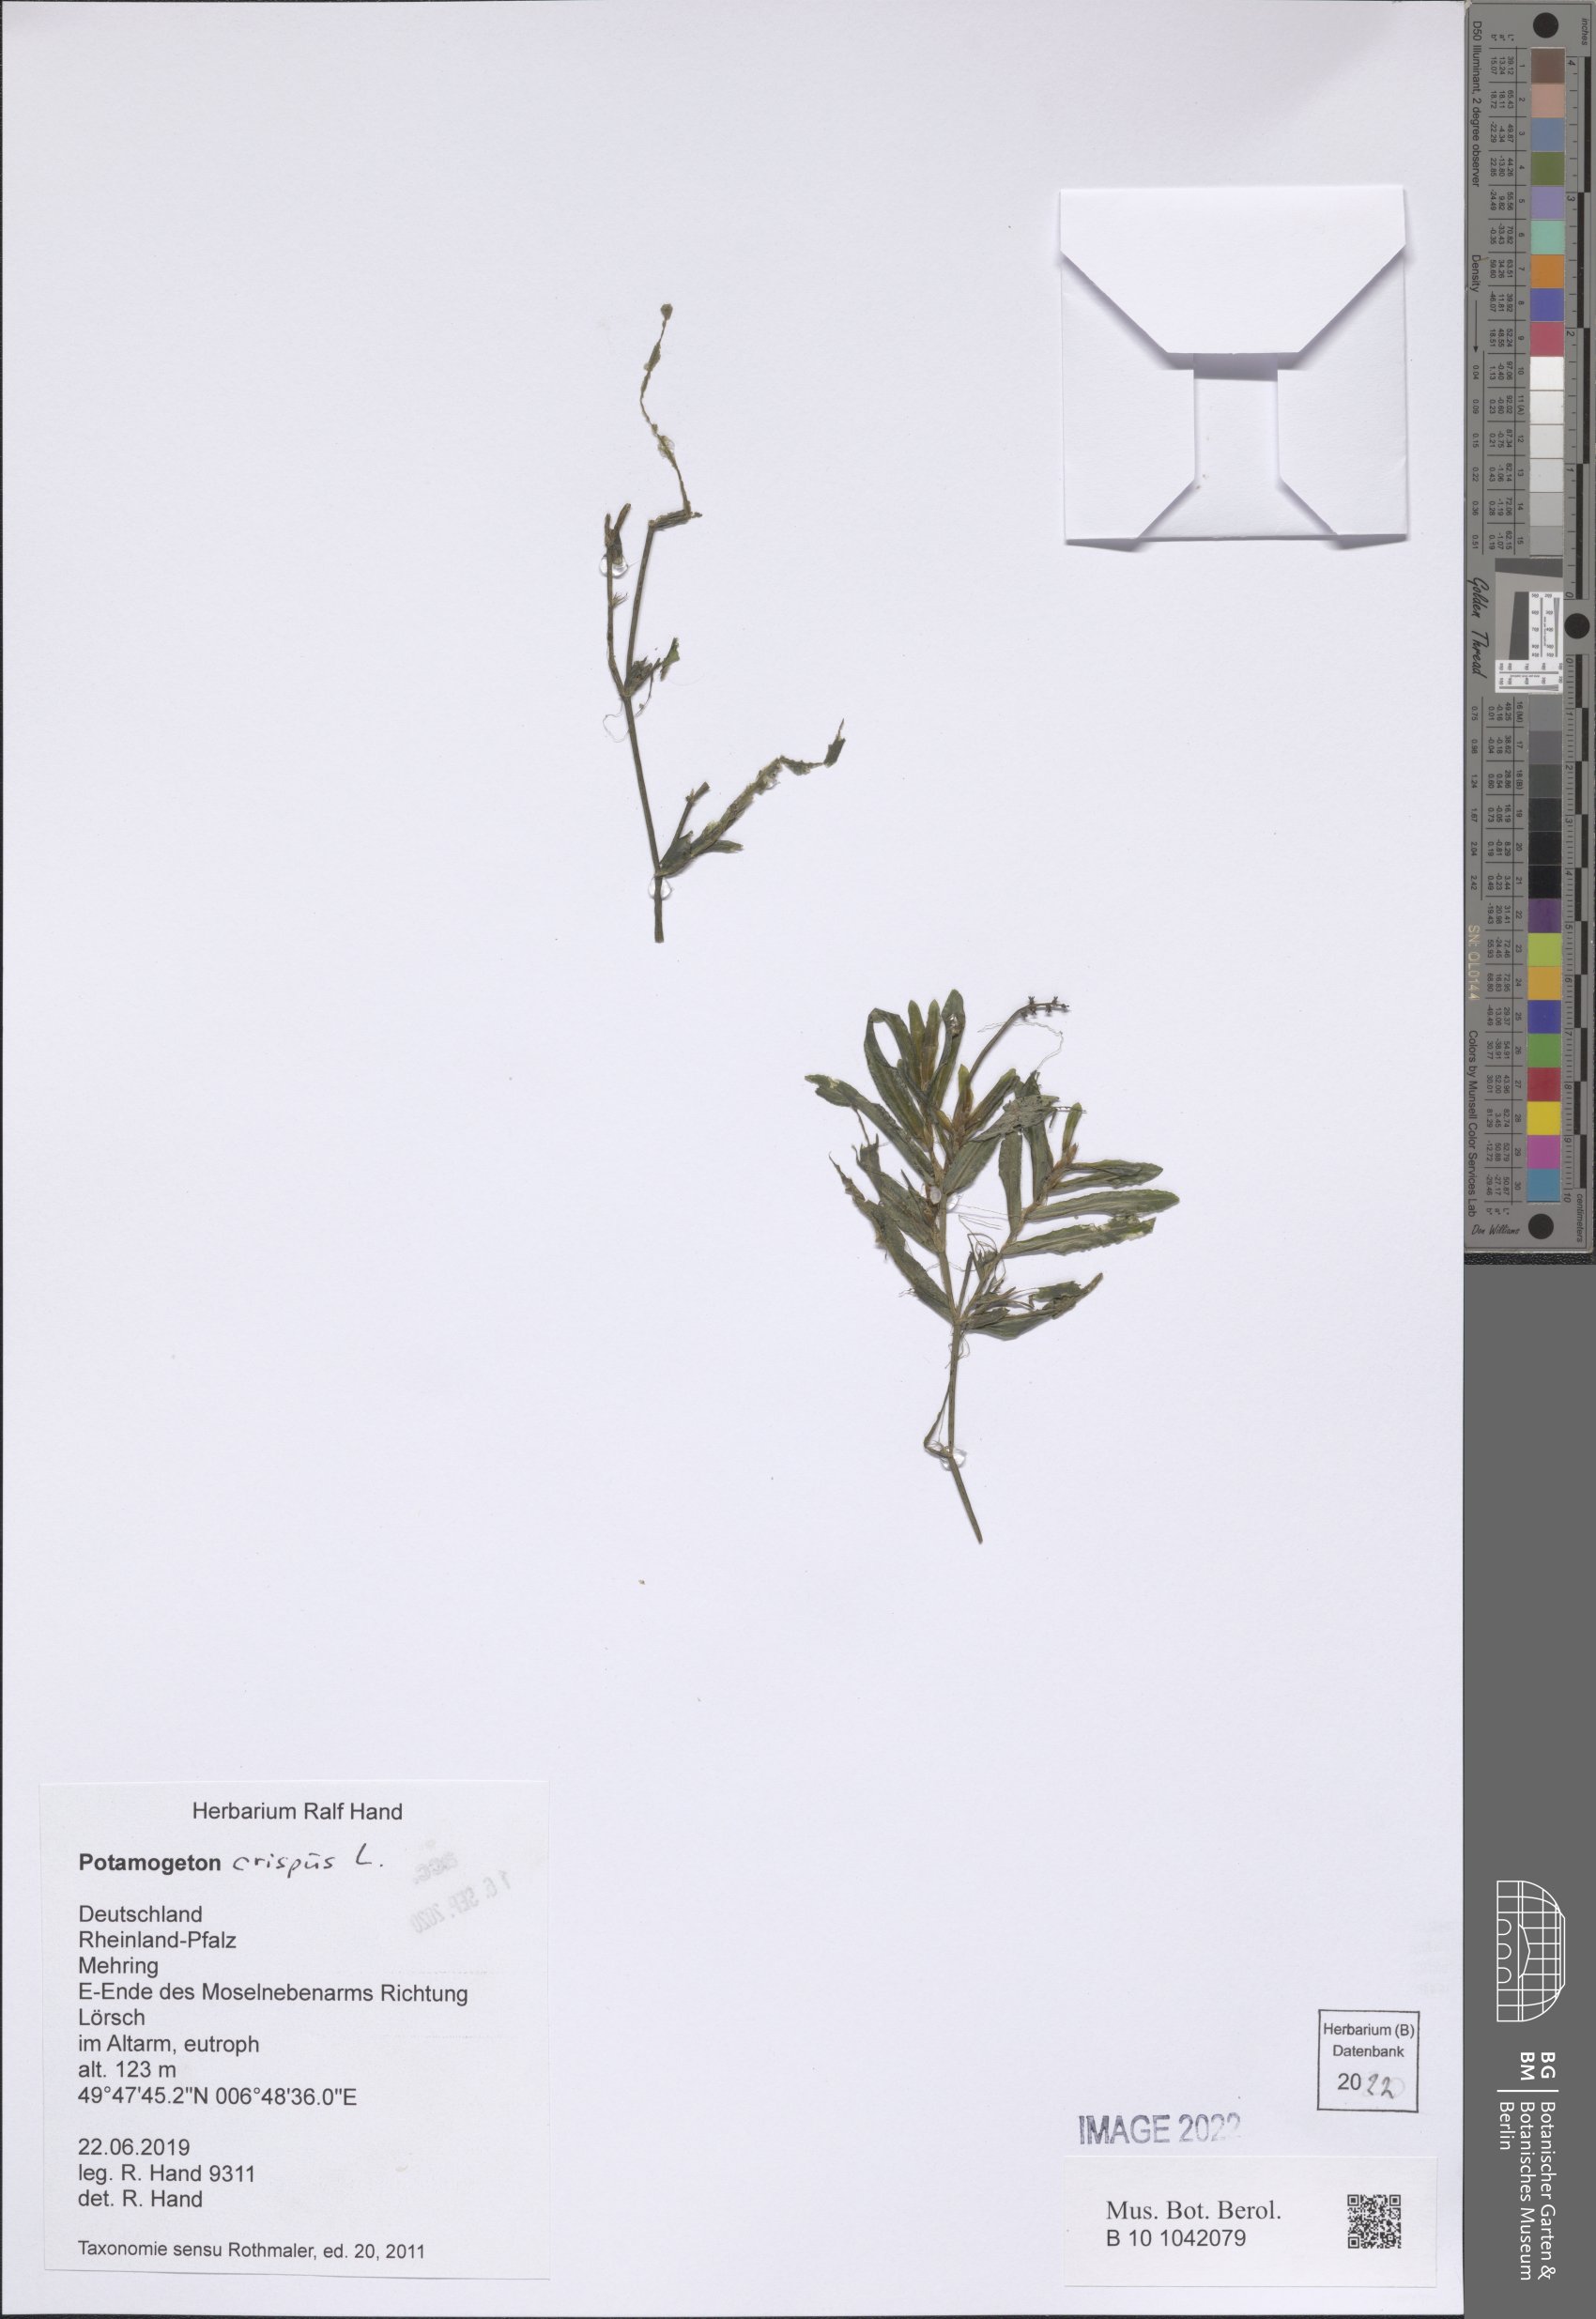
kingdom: Plantae
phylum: Tracheophyta
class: Liliopsida
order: Alismatales
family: Potamogetonaceae
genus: Potamogeton
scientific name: Potamogeton crispus
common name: Curled pondweed
